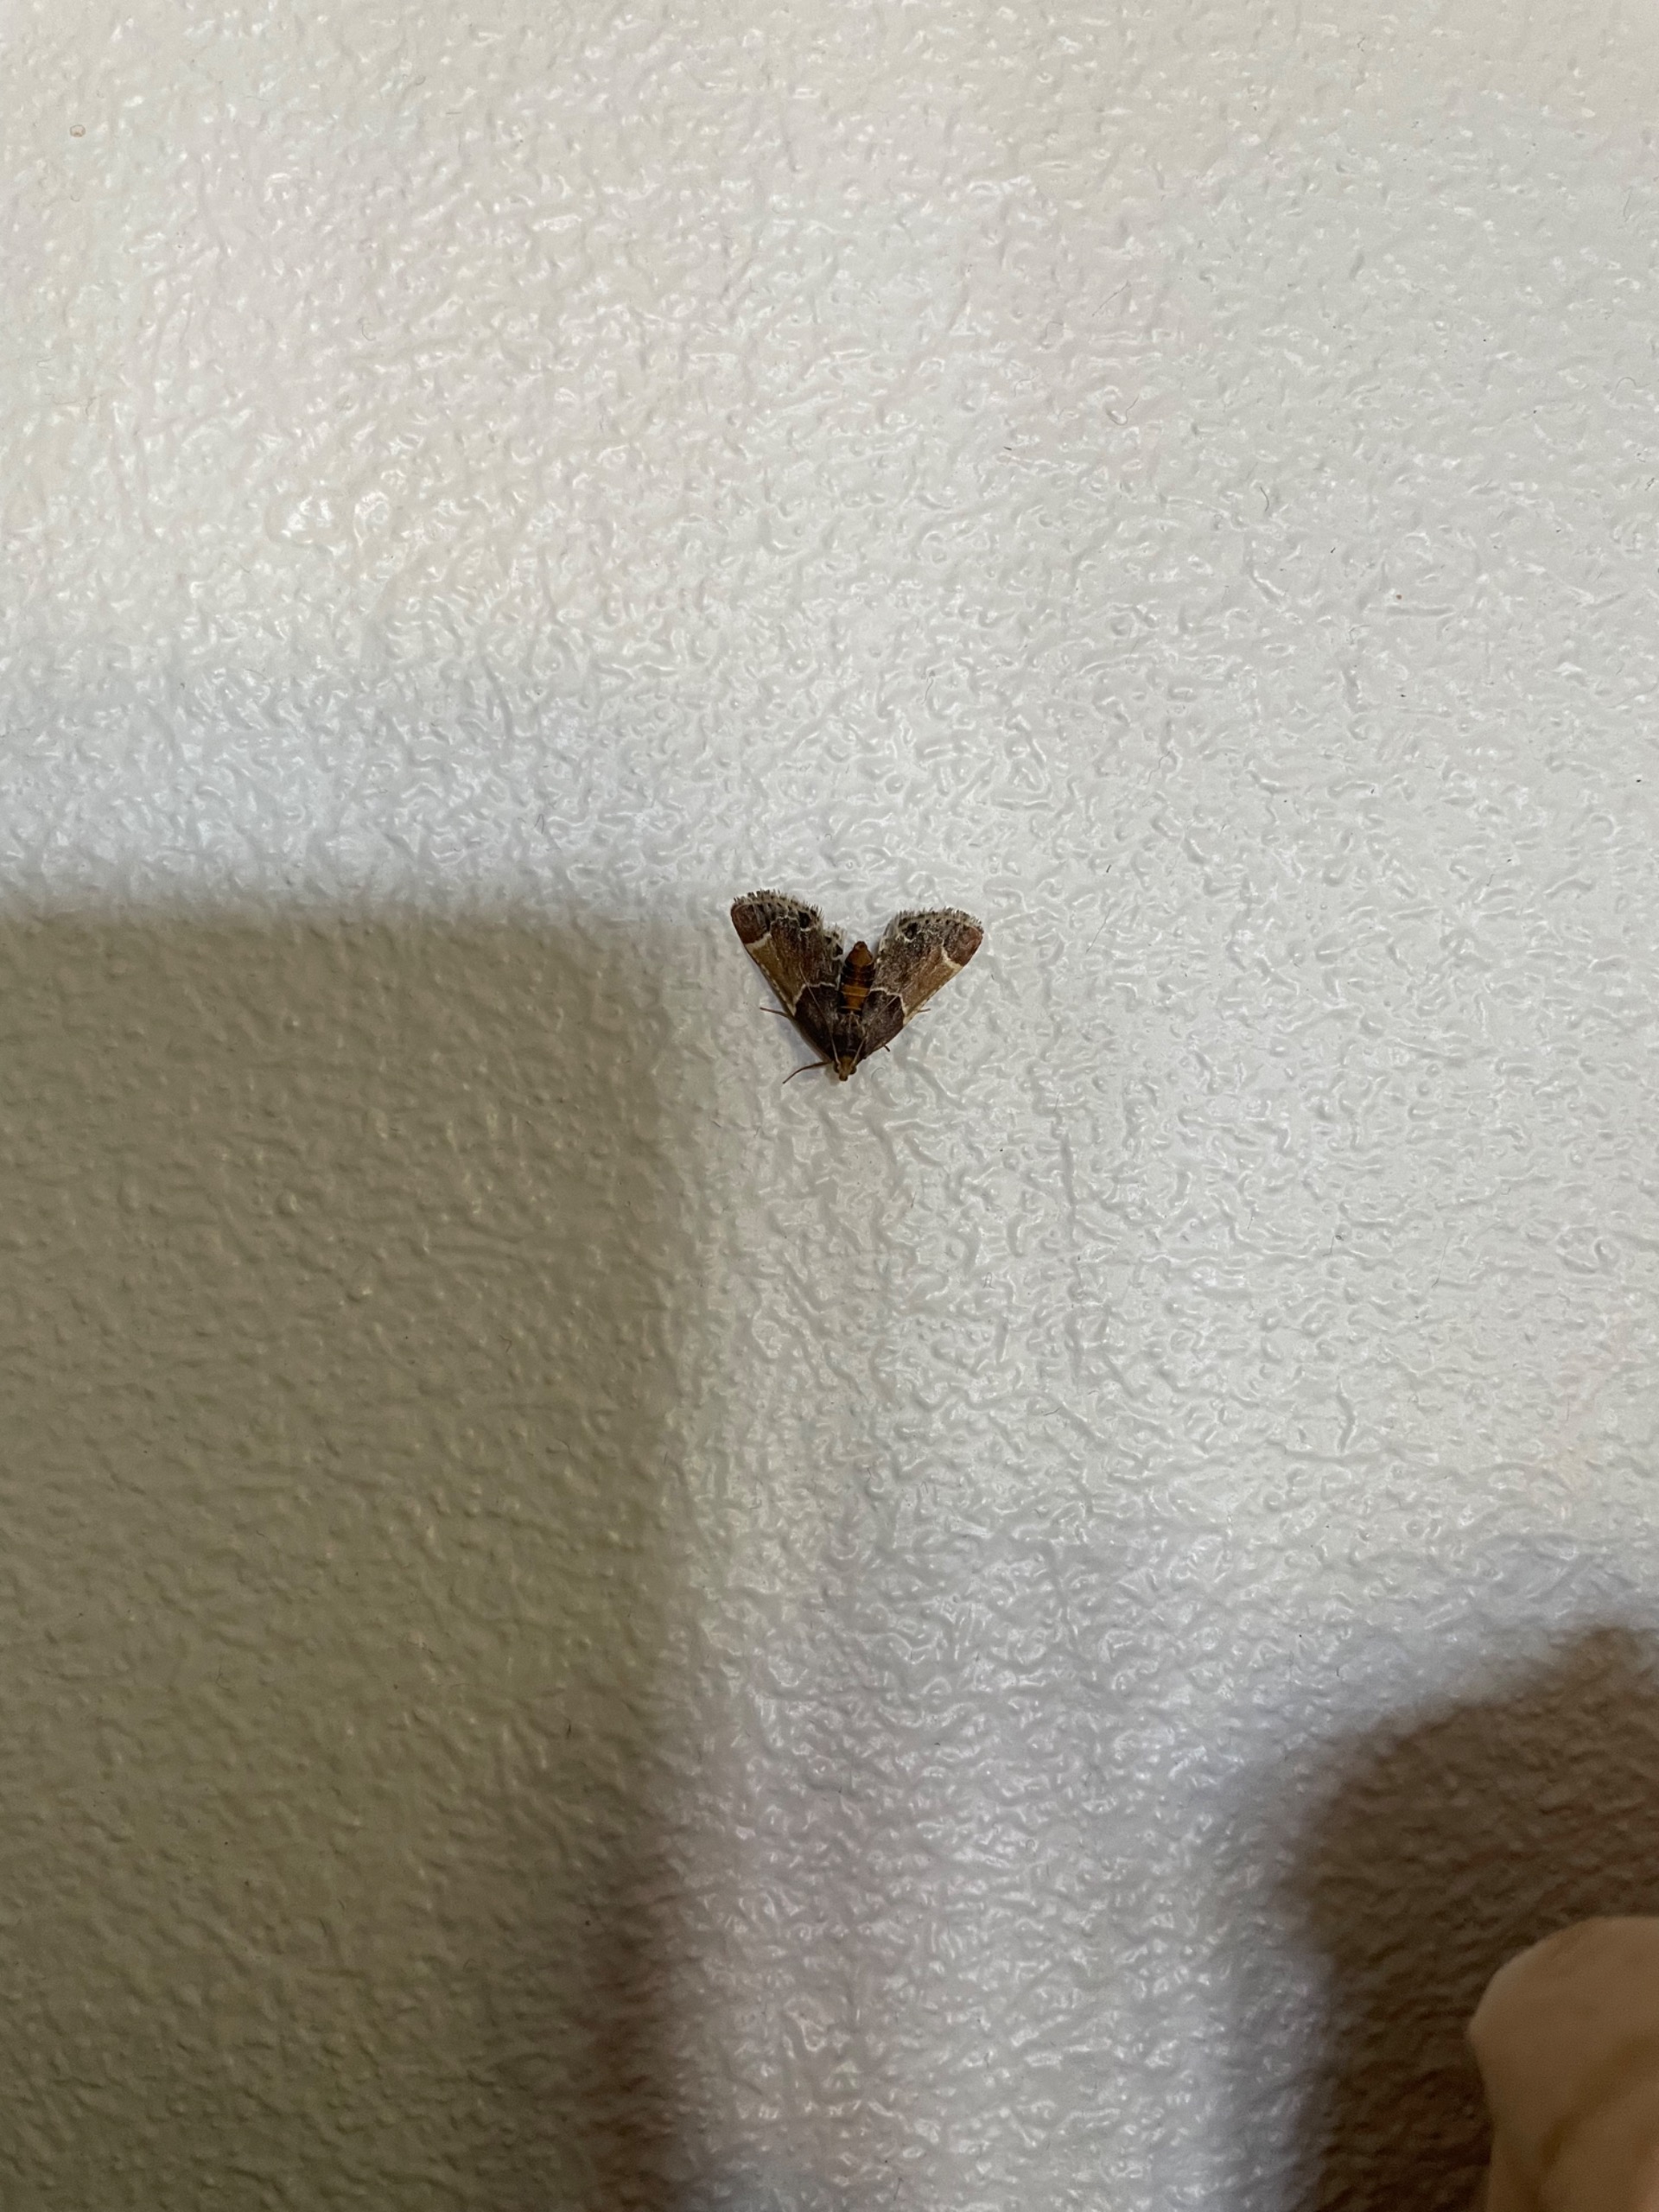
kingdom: Animalia
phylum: Arthropoda
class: Insecta
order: Lepidoptera
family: Pyralidae
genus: Pyralis
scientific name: Pyralis farinalis
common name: Stort melmøl
